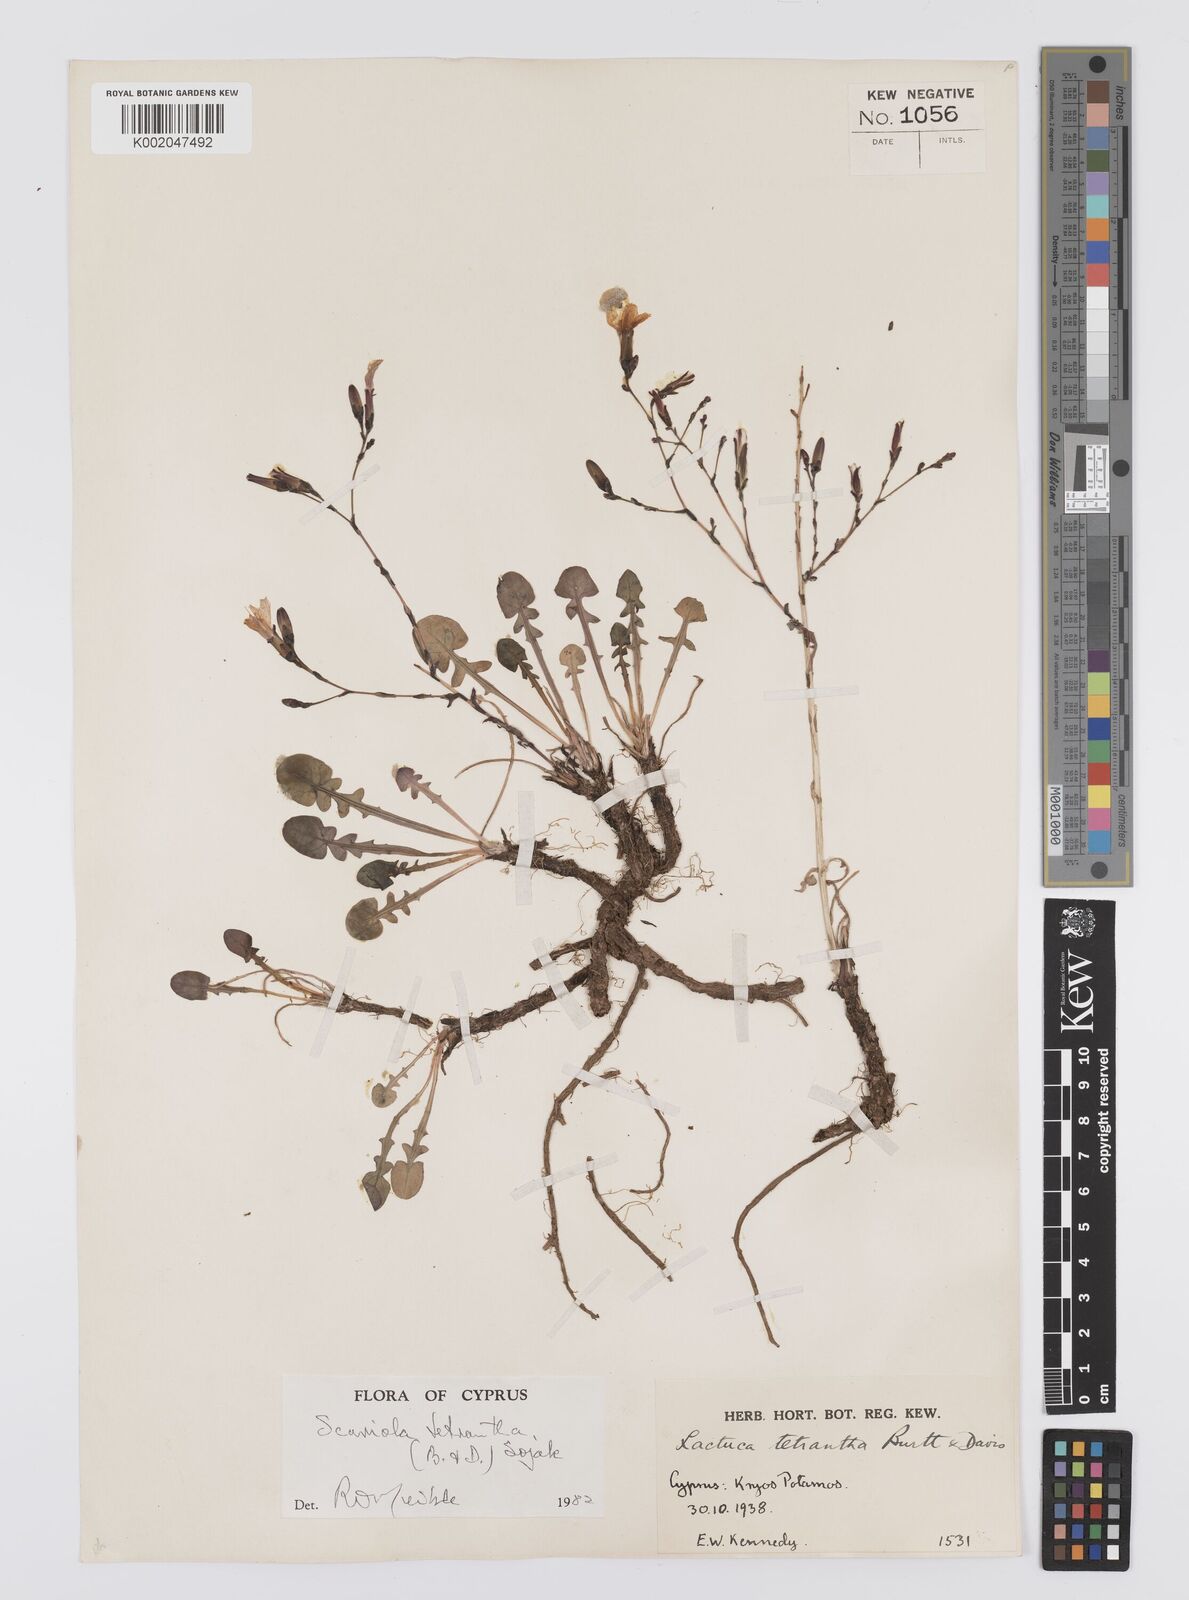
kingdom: Plantae
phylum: Tracheophyta
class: Magnoliopsida
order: Asterales
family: Asteraceae
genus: Lactuca
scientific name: Lactuca tetrantha
